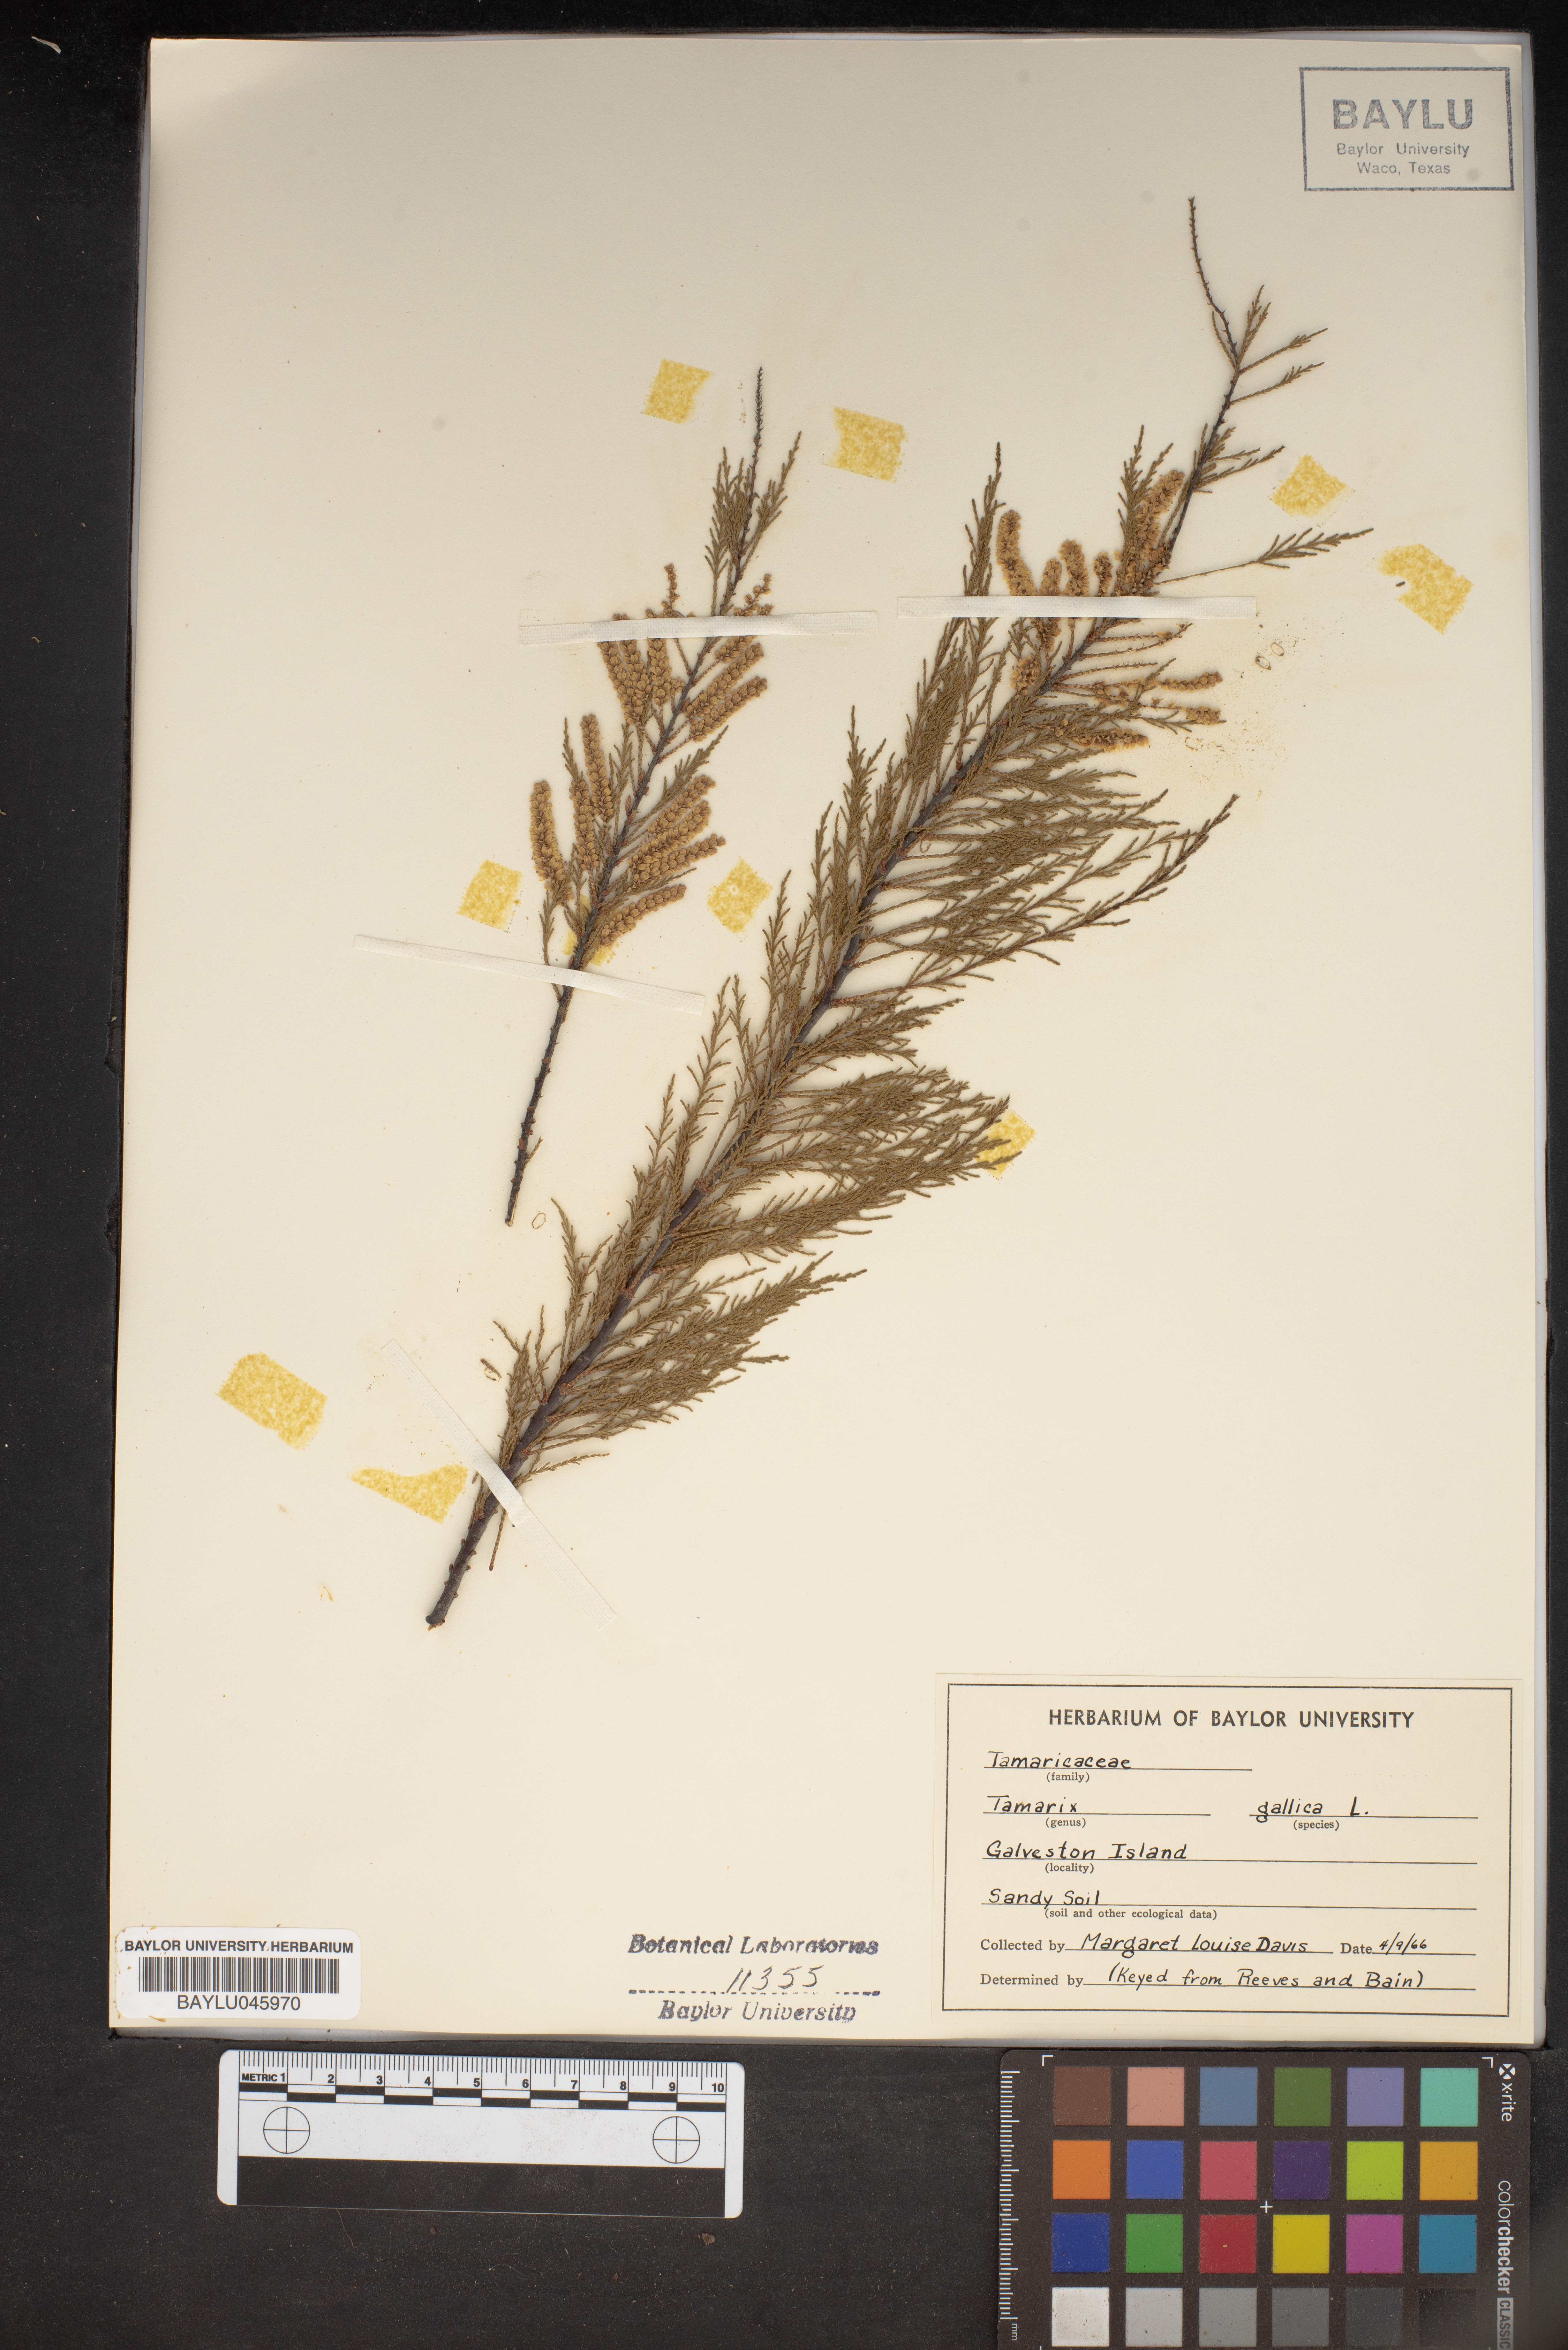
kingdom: Plantae
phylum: Tracheophyta
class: Magnoliopsida
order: Caryophyllales
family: Tamaricaceae
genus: Tamarix
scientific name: Tamarix gallica
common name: Tamarisk
